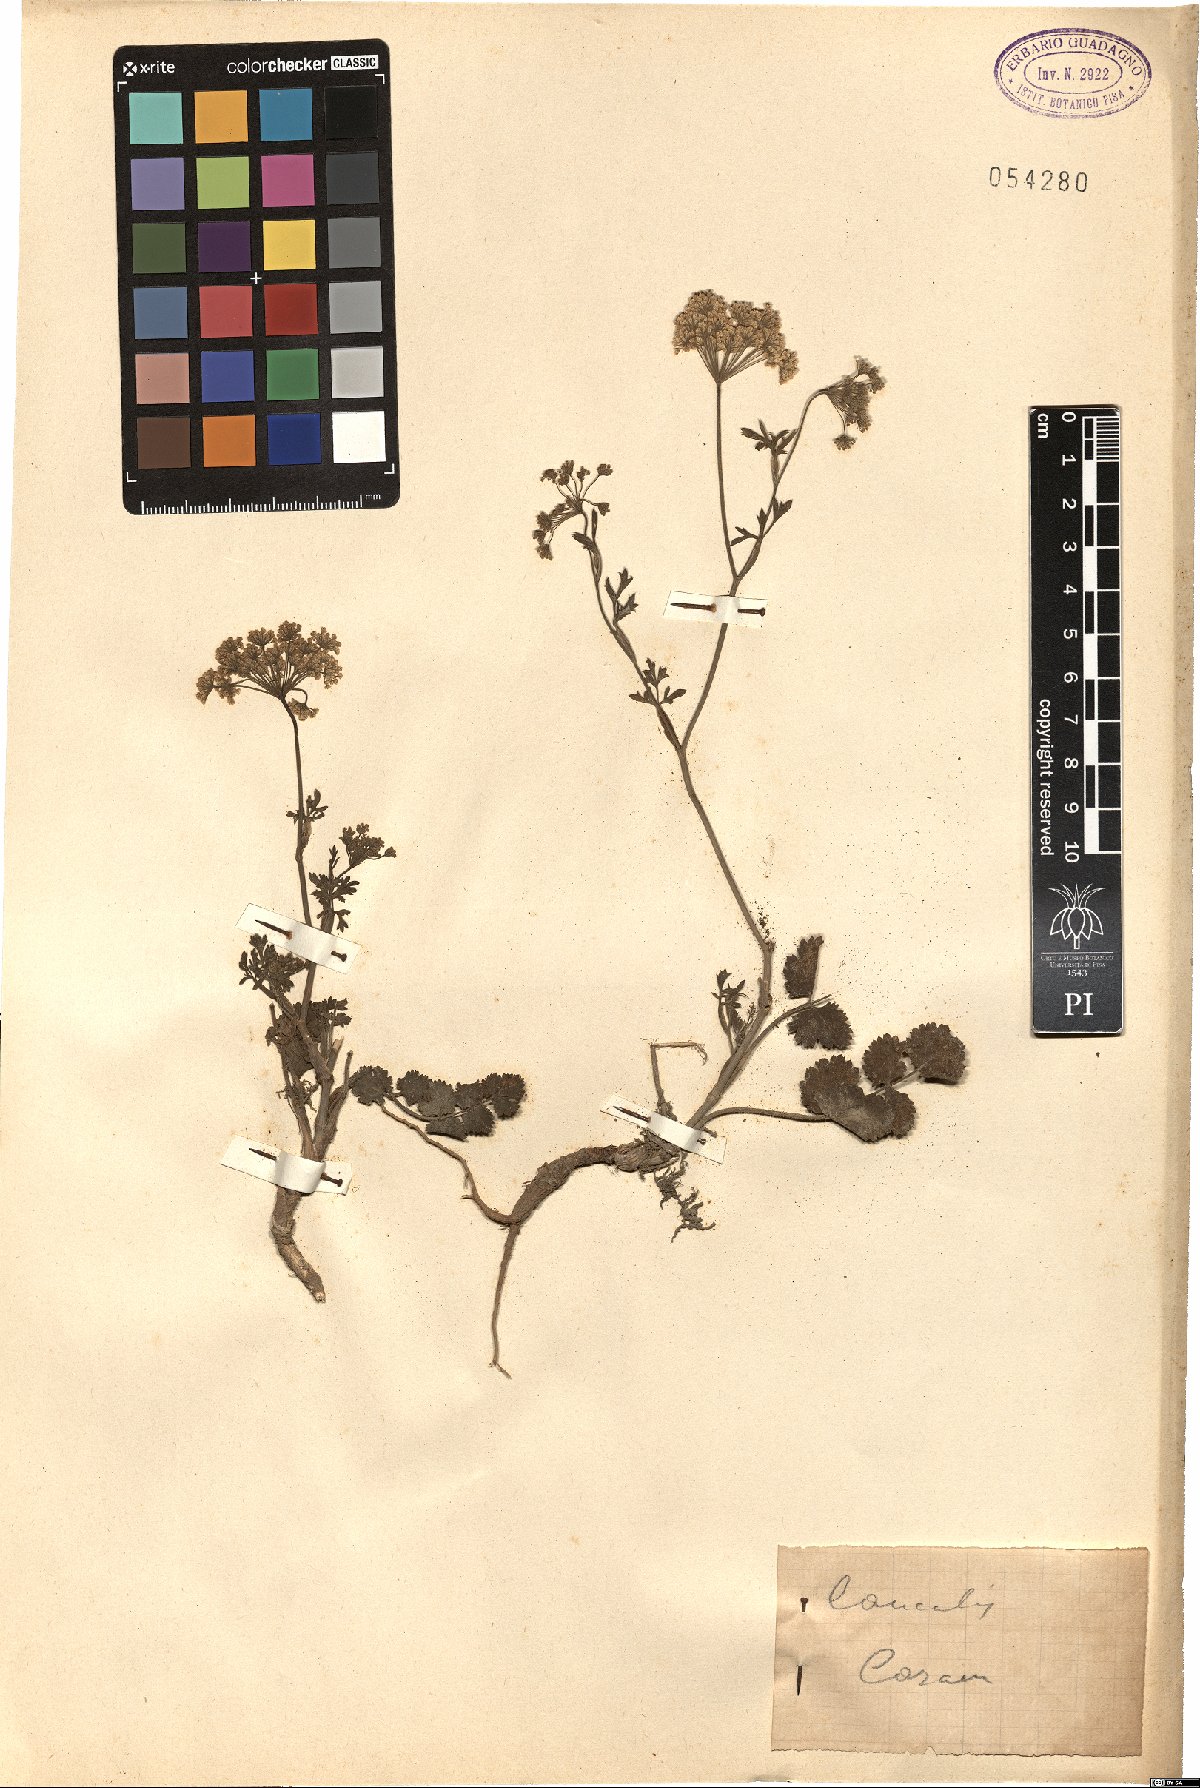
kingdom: Plantae
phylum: Tracheophyta
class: Magnoliopsida
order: Apiales
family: Apiaceae
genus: Caucalis
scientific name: Caucalis
